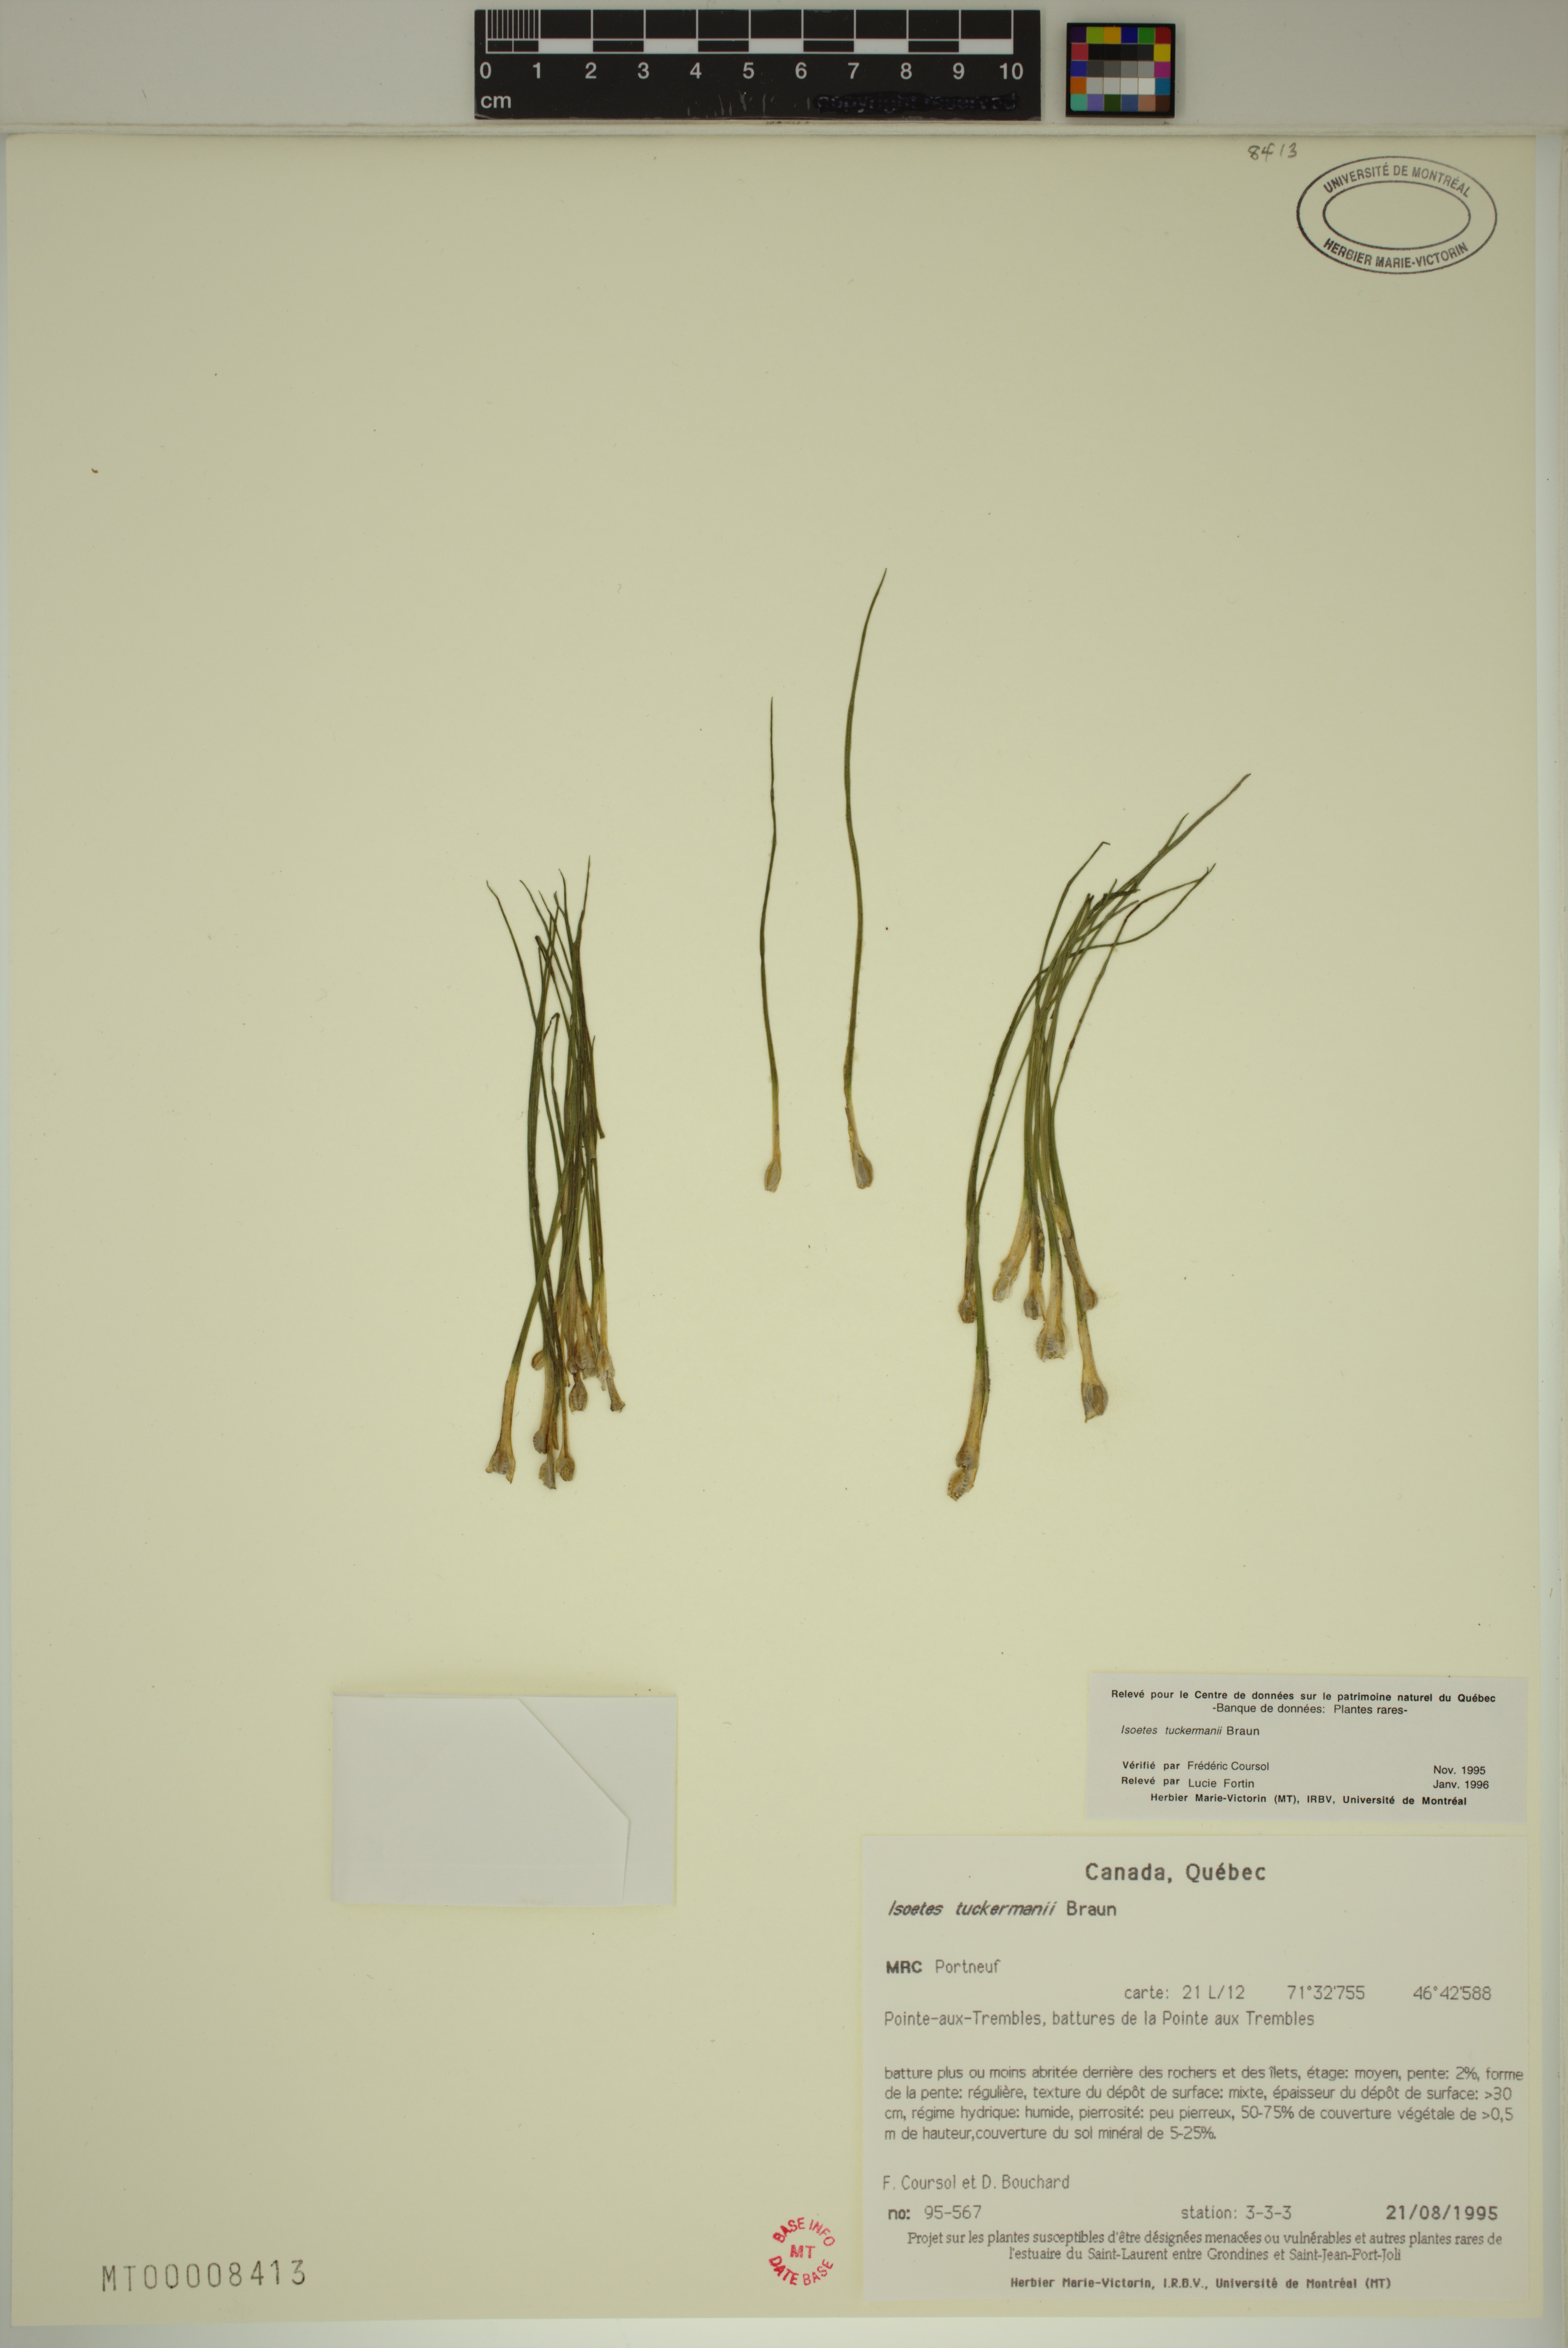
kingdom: Plantae
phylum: Tracheophyta
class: Lycopodiopsida
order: Isoetales
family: Isoetaceae
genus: Isoetes
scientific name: Isoetes laurentiana
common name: St. lawrence quillwort
